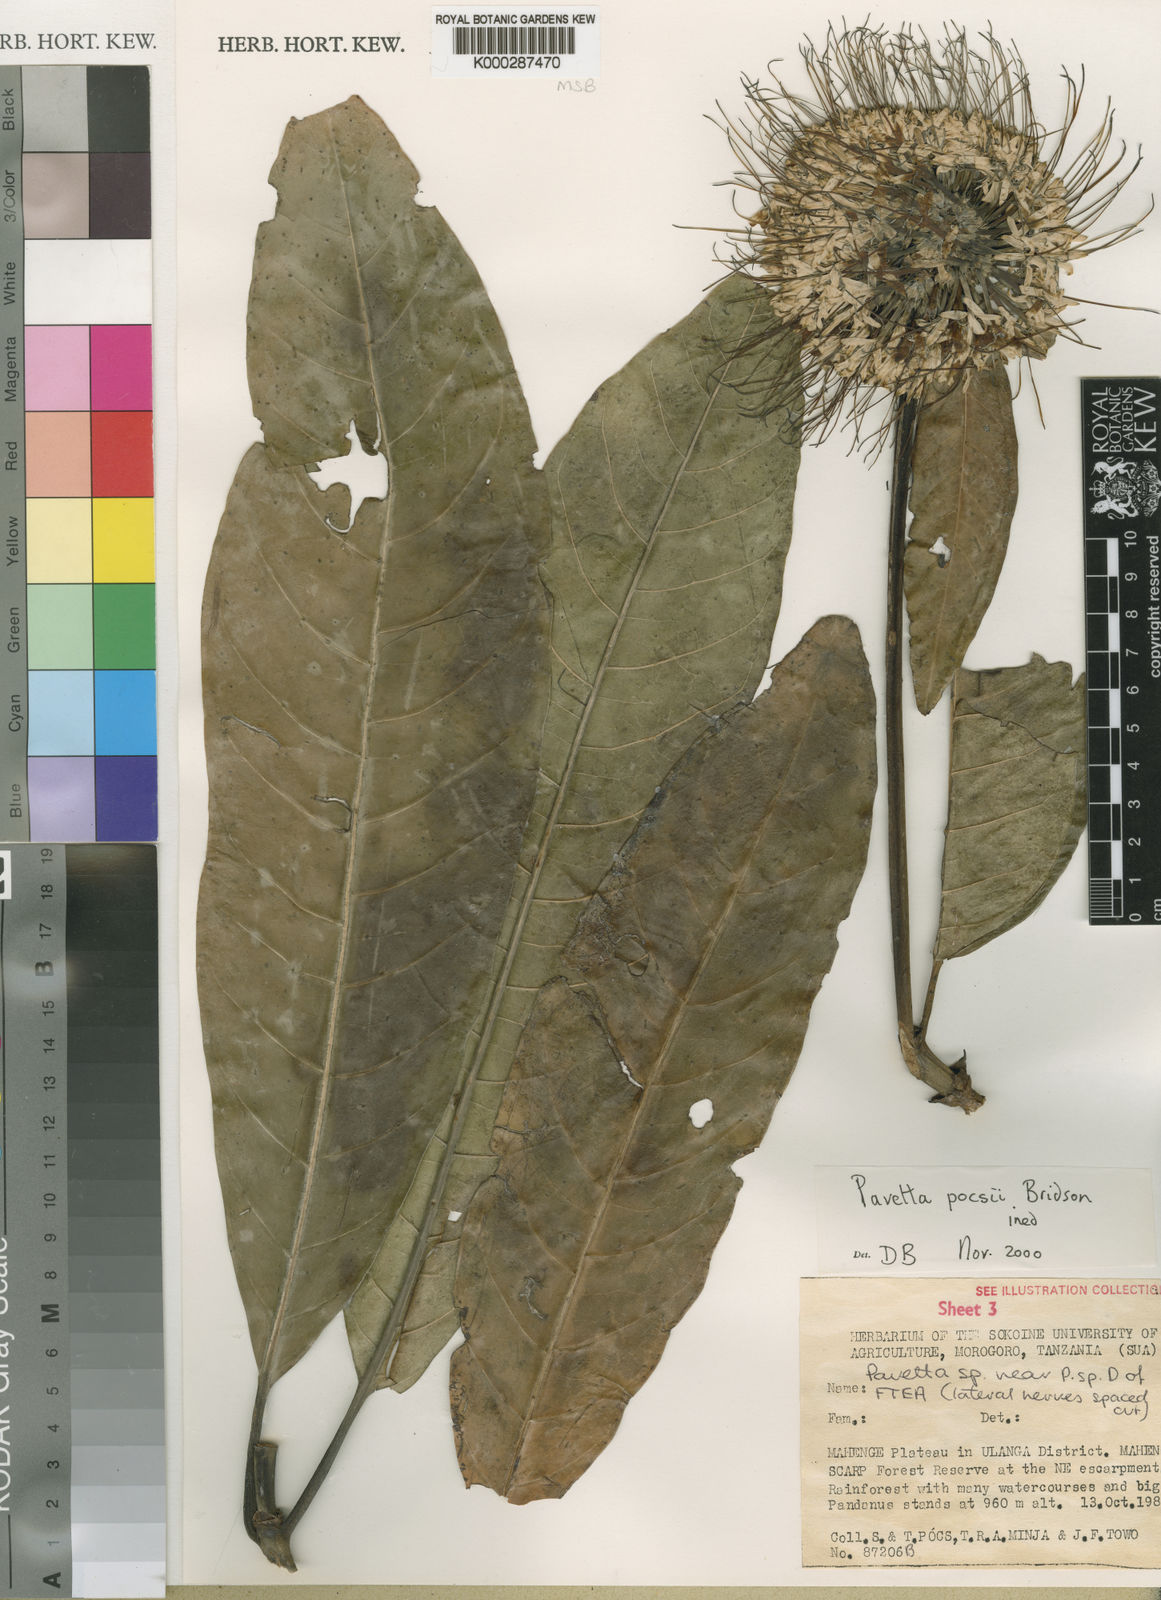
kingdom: Plantae
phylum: Tracheophyta
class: Magnoliopsida
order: Gentianales
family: Rubiaceae
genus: Pavetta
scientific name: Pavetta pocsii
